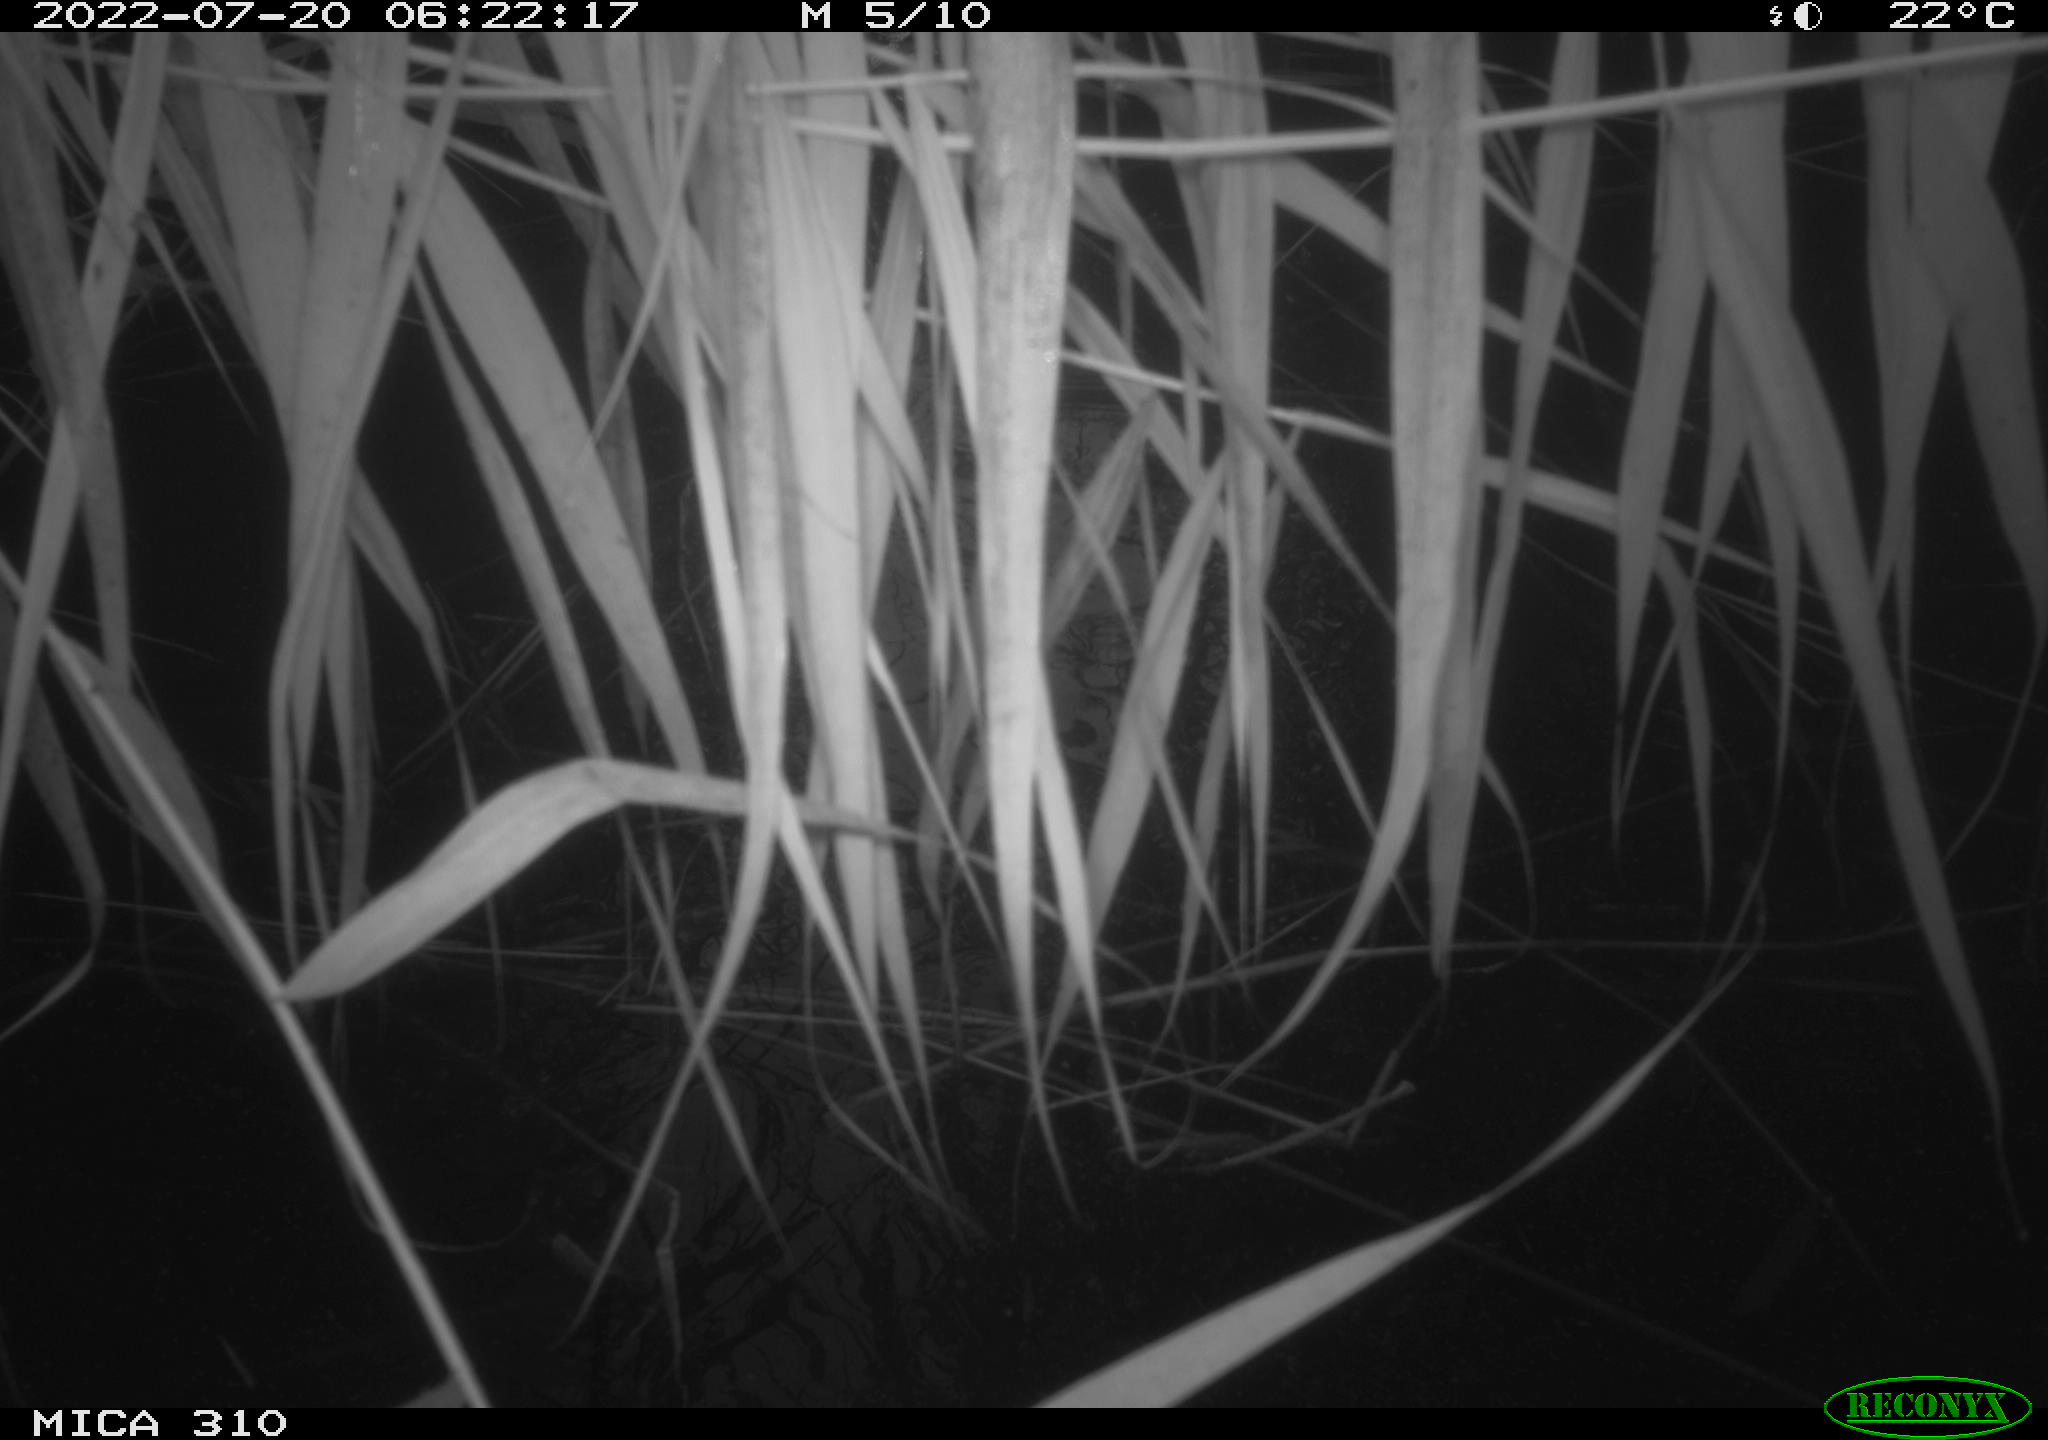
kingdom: Animalia
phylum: Chordata
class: Aves
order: Gruiformes
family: Rallidae
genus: Gallinula
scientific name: Gallinula chloropus
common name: Common moorhen
